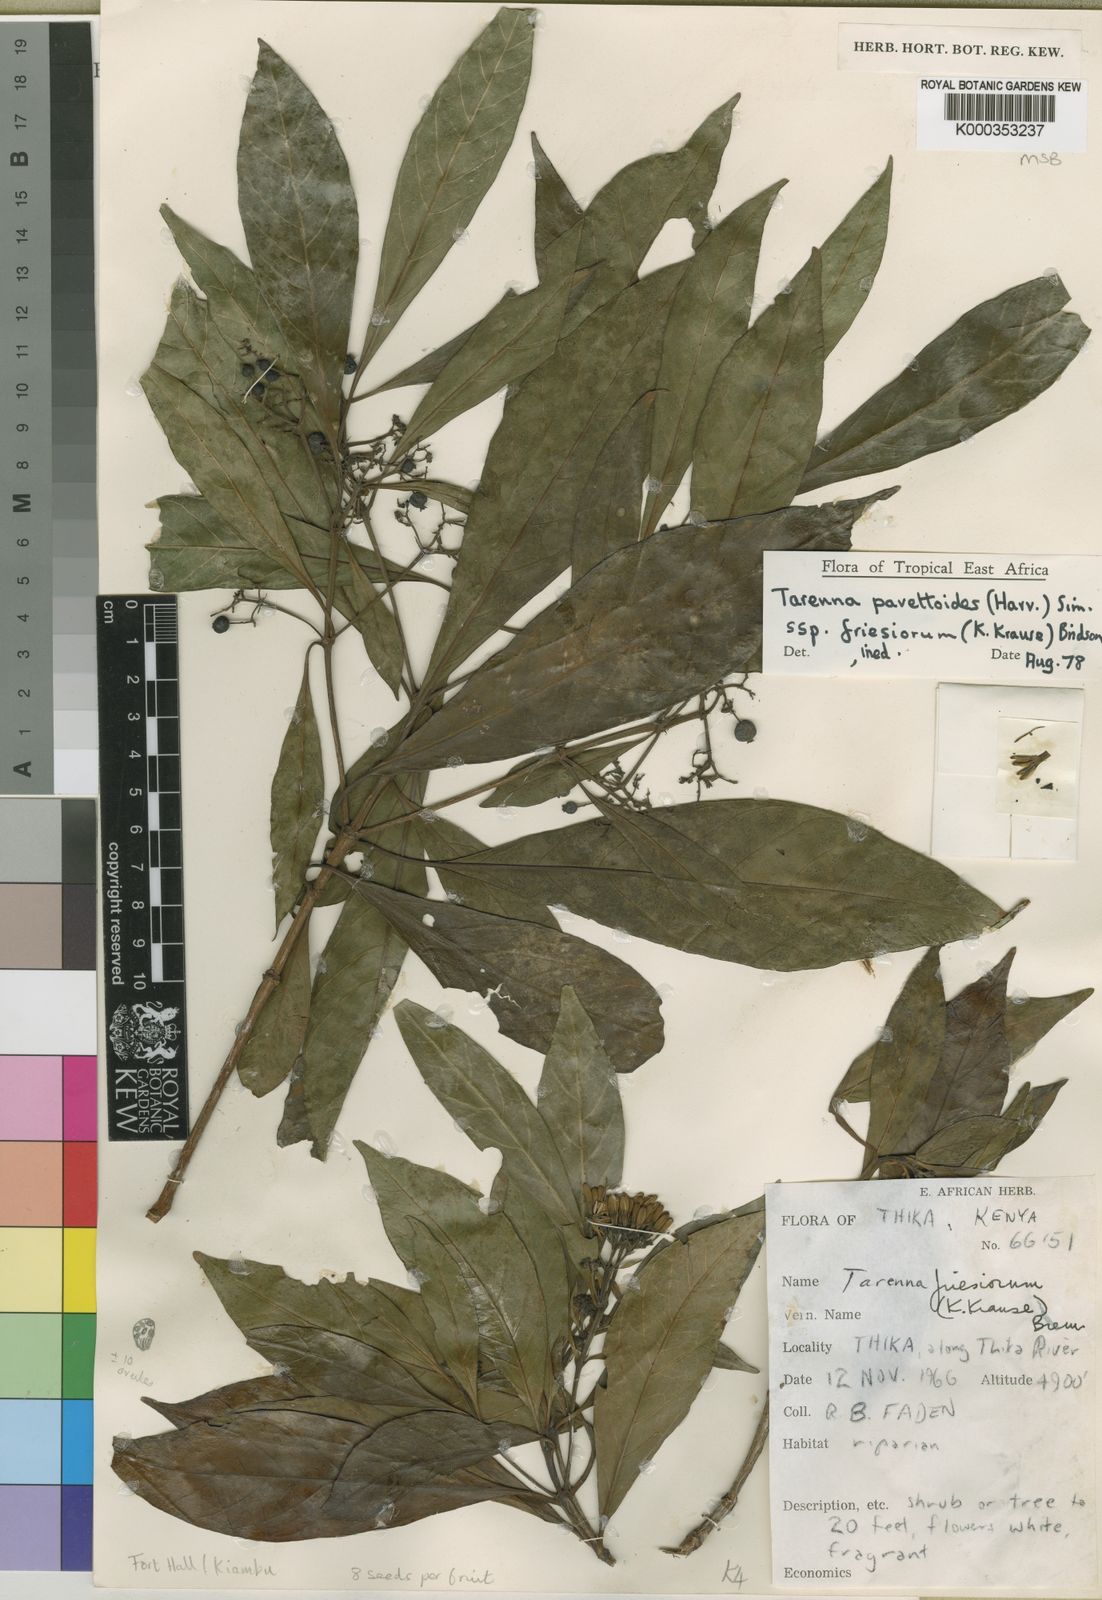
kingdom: Plantae
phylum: Tracheophyta
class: Magnoliopsida
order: Gentianales
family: Rubiaceae
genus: Tarenna
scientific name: Tarenna pavettoides
